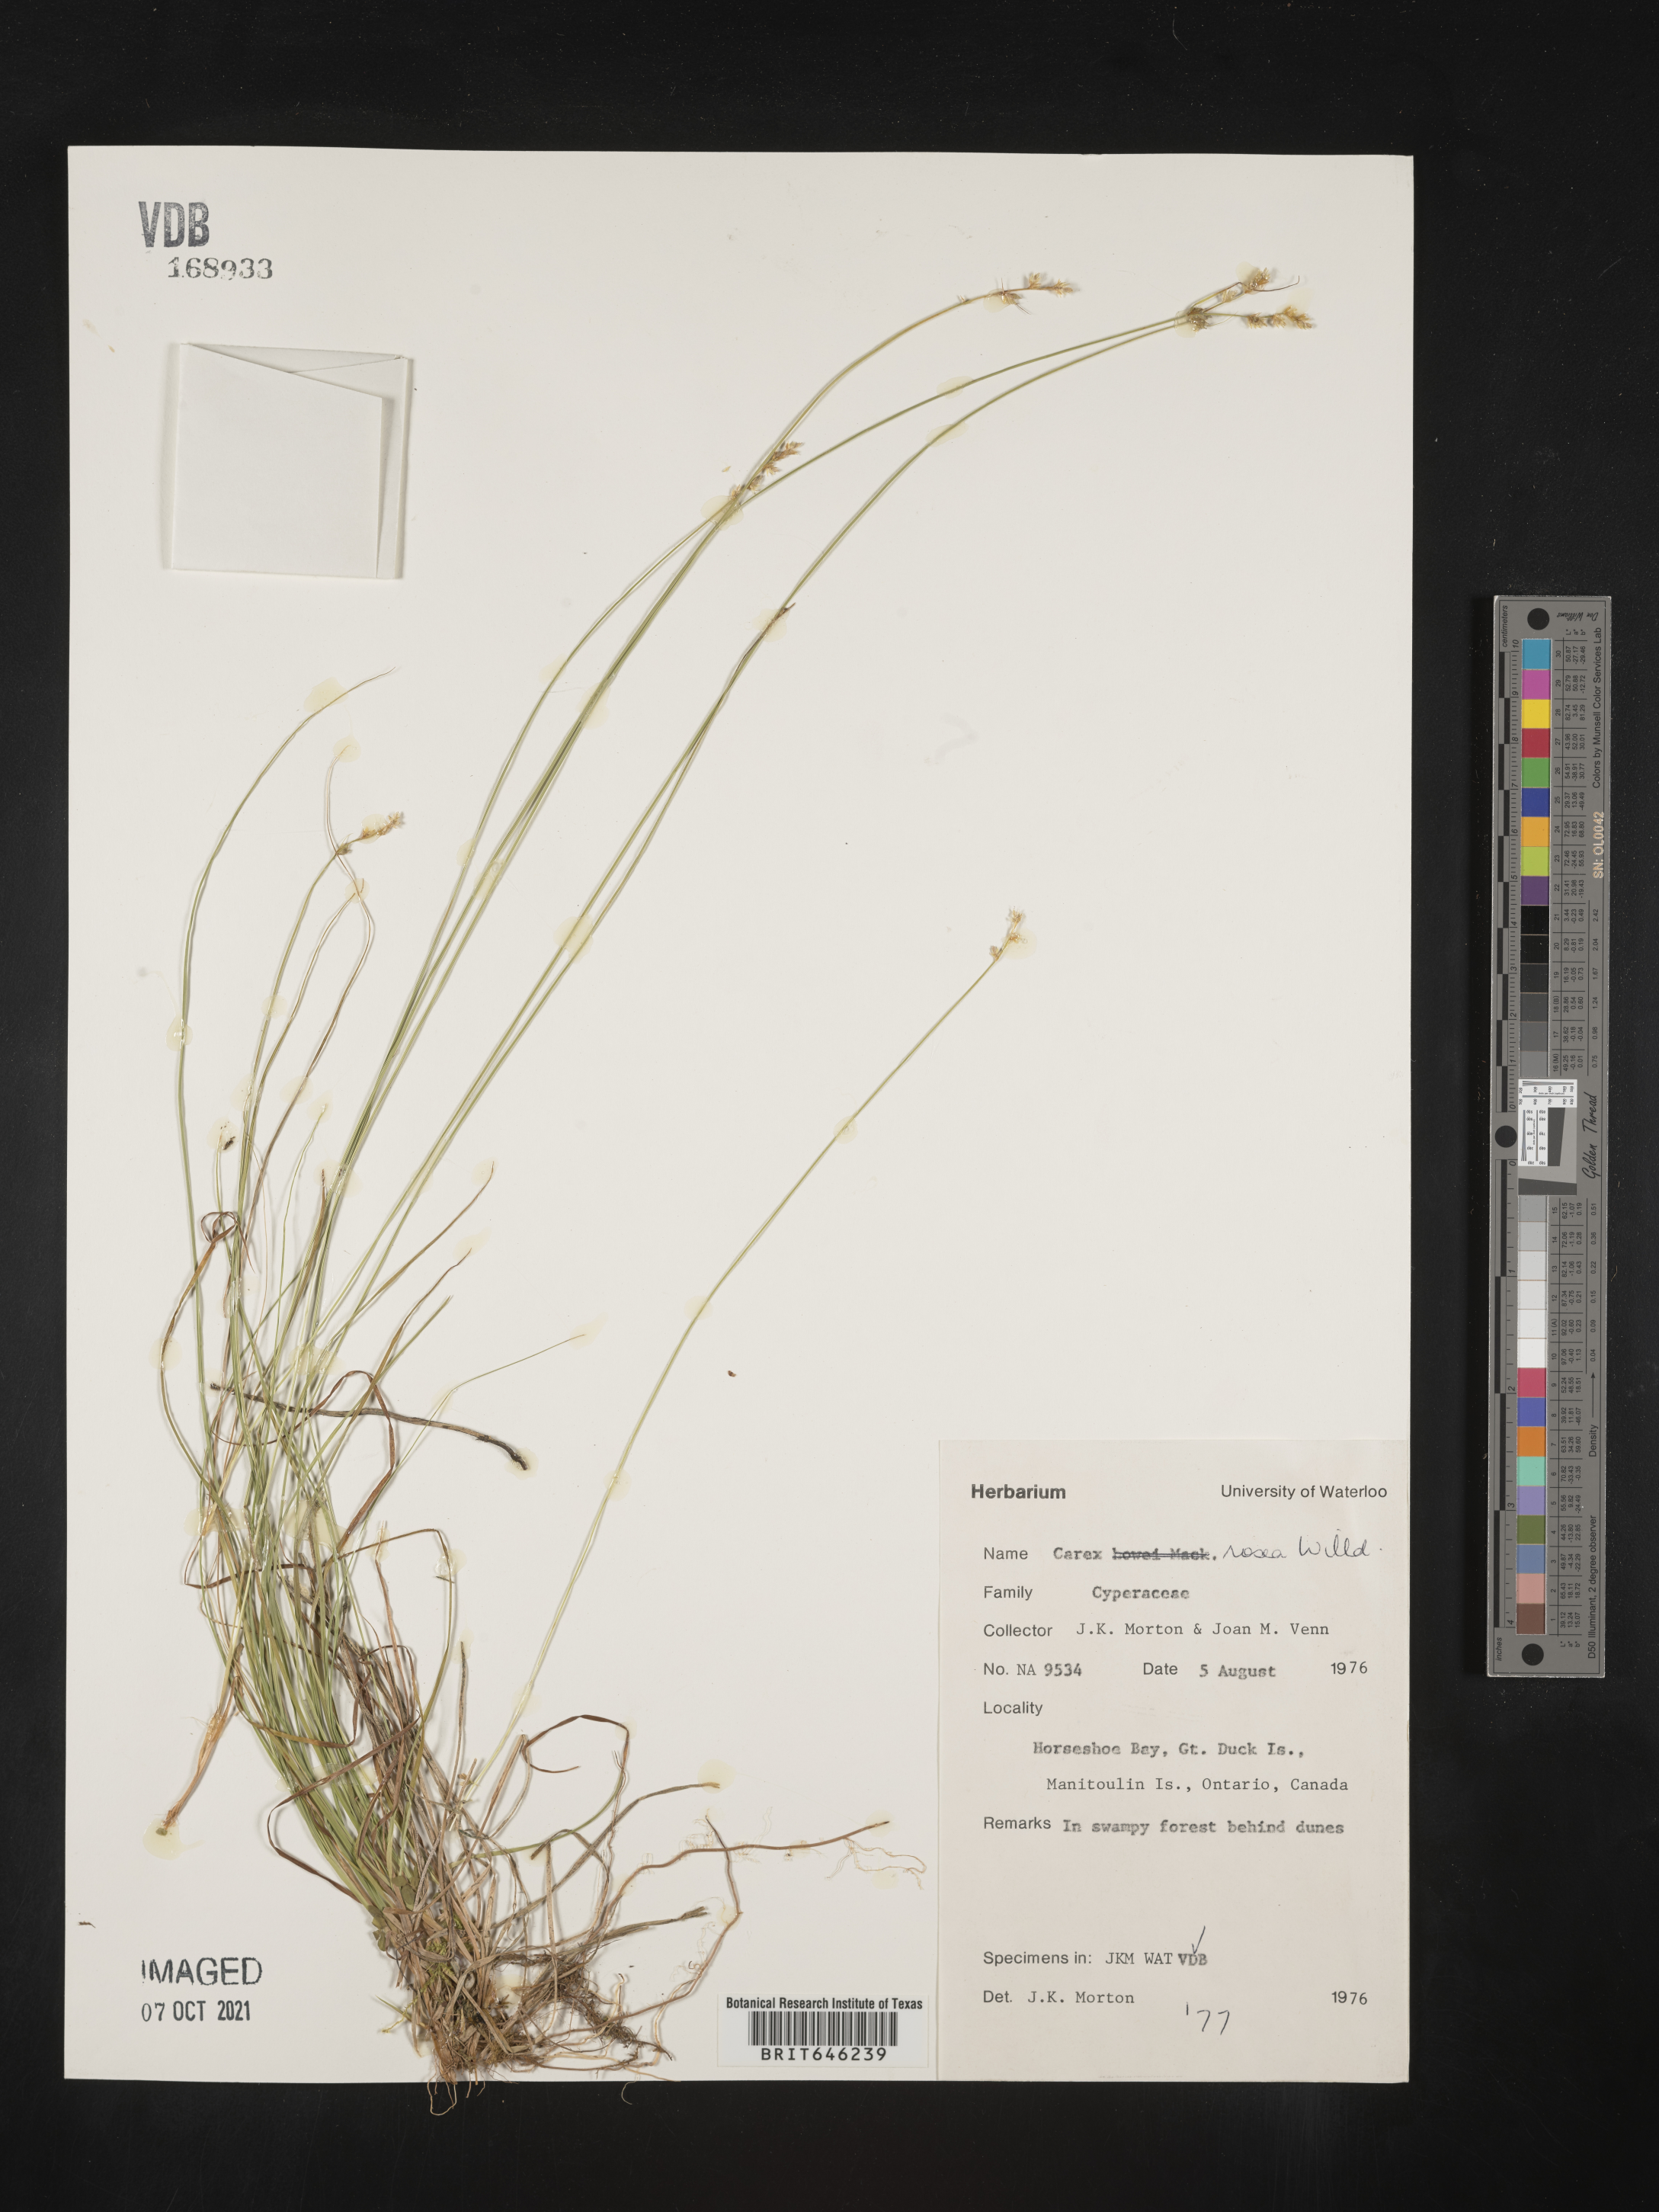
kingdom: Plantae
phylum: Tracheophyta
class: Liliopsida
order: Poales
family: Cyperaceae
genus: Carex
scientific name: Carex rosea
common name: Curly-styled wood sedge
